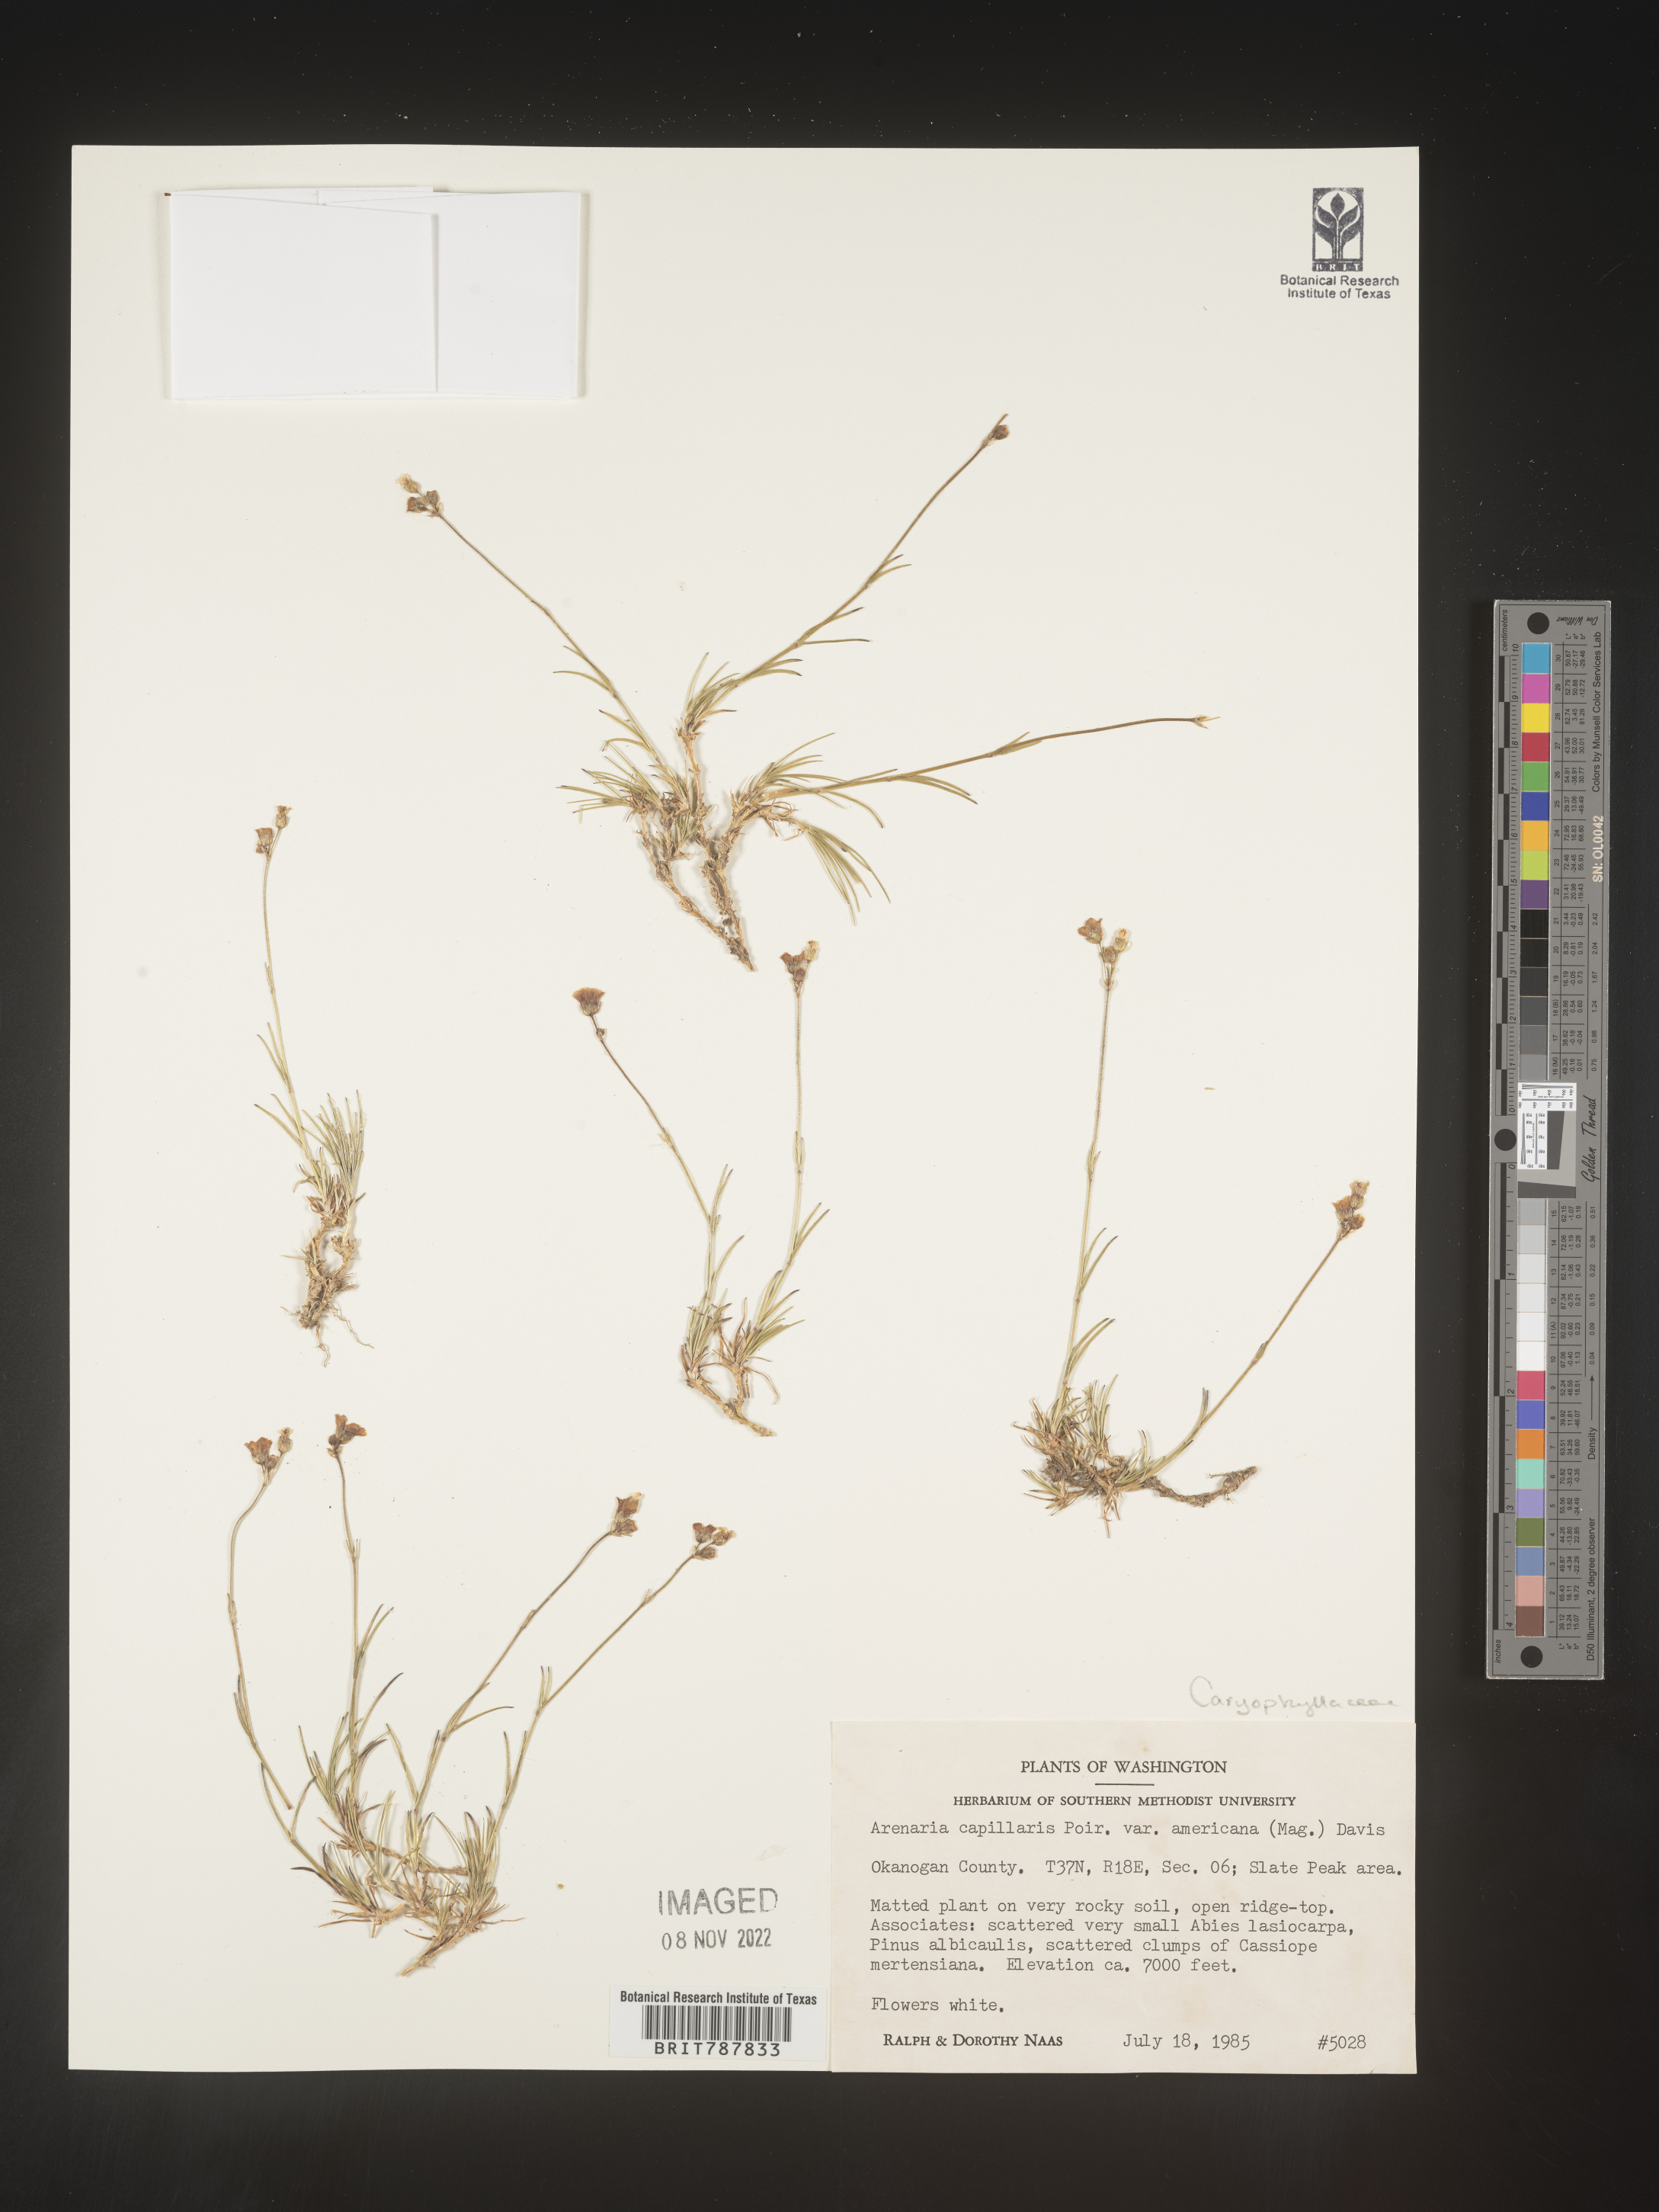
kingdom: Plantae
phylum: Tracheophyta
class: Magnoliopsida
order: Caryophyllales
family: Caryophyllaceae
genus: Arenaria
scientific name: Arenaria
